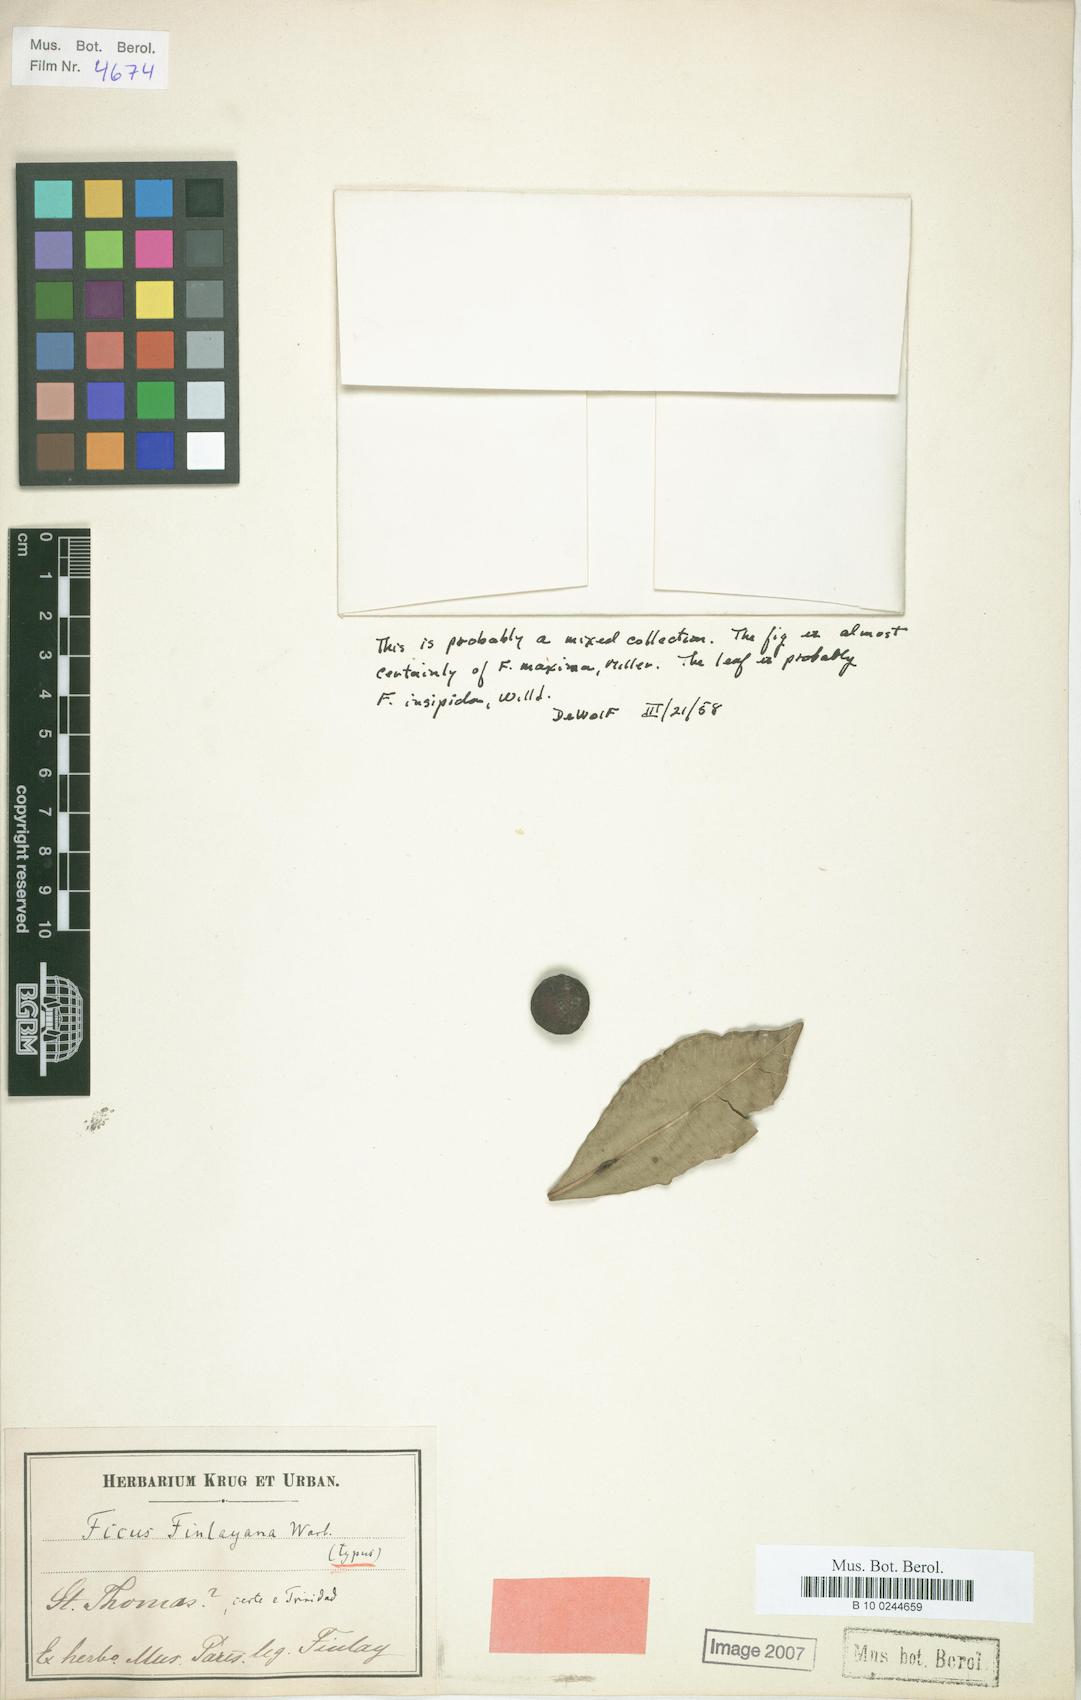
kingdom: Plantae
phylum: Tracheophyta
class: Magnoliopsida
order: Rosales
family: Moraceae
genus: Ficus
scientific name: Ficus
